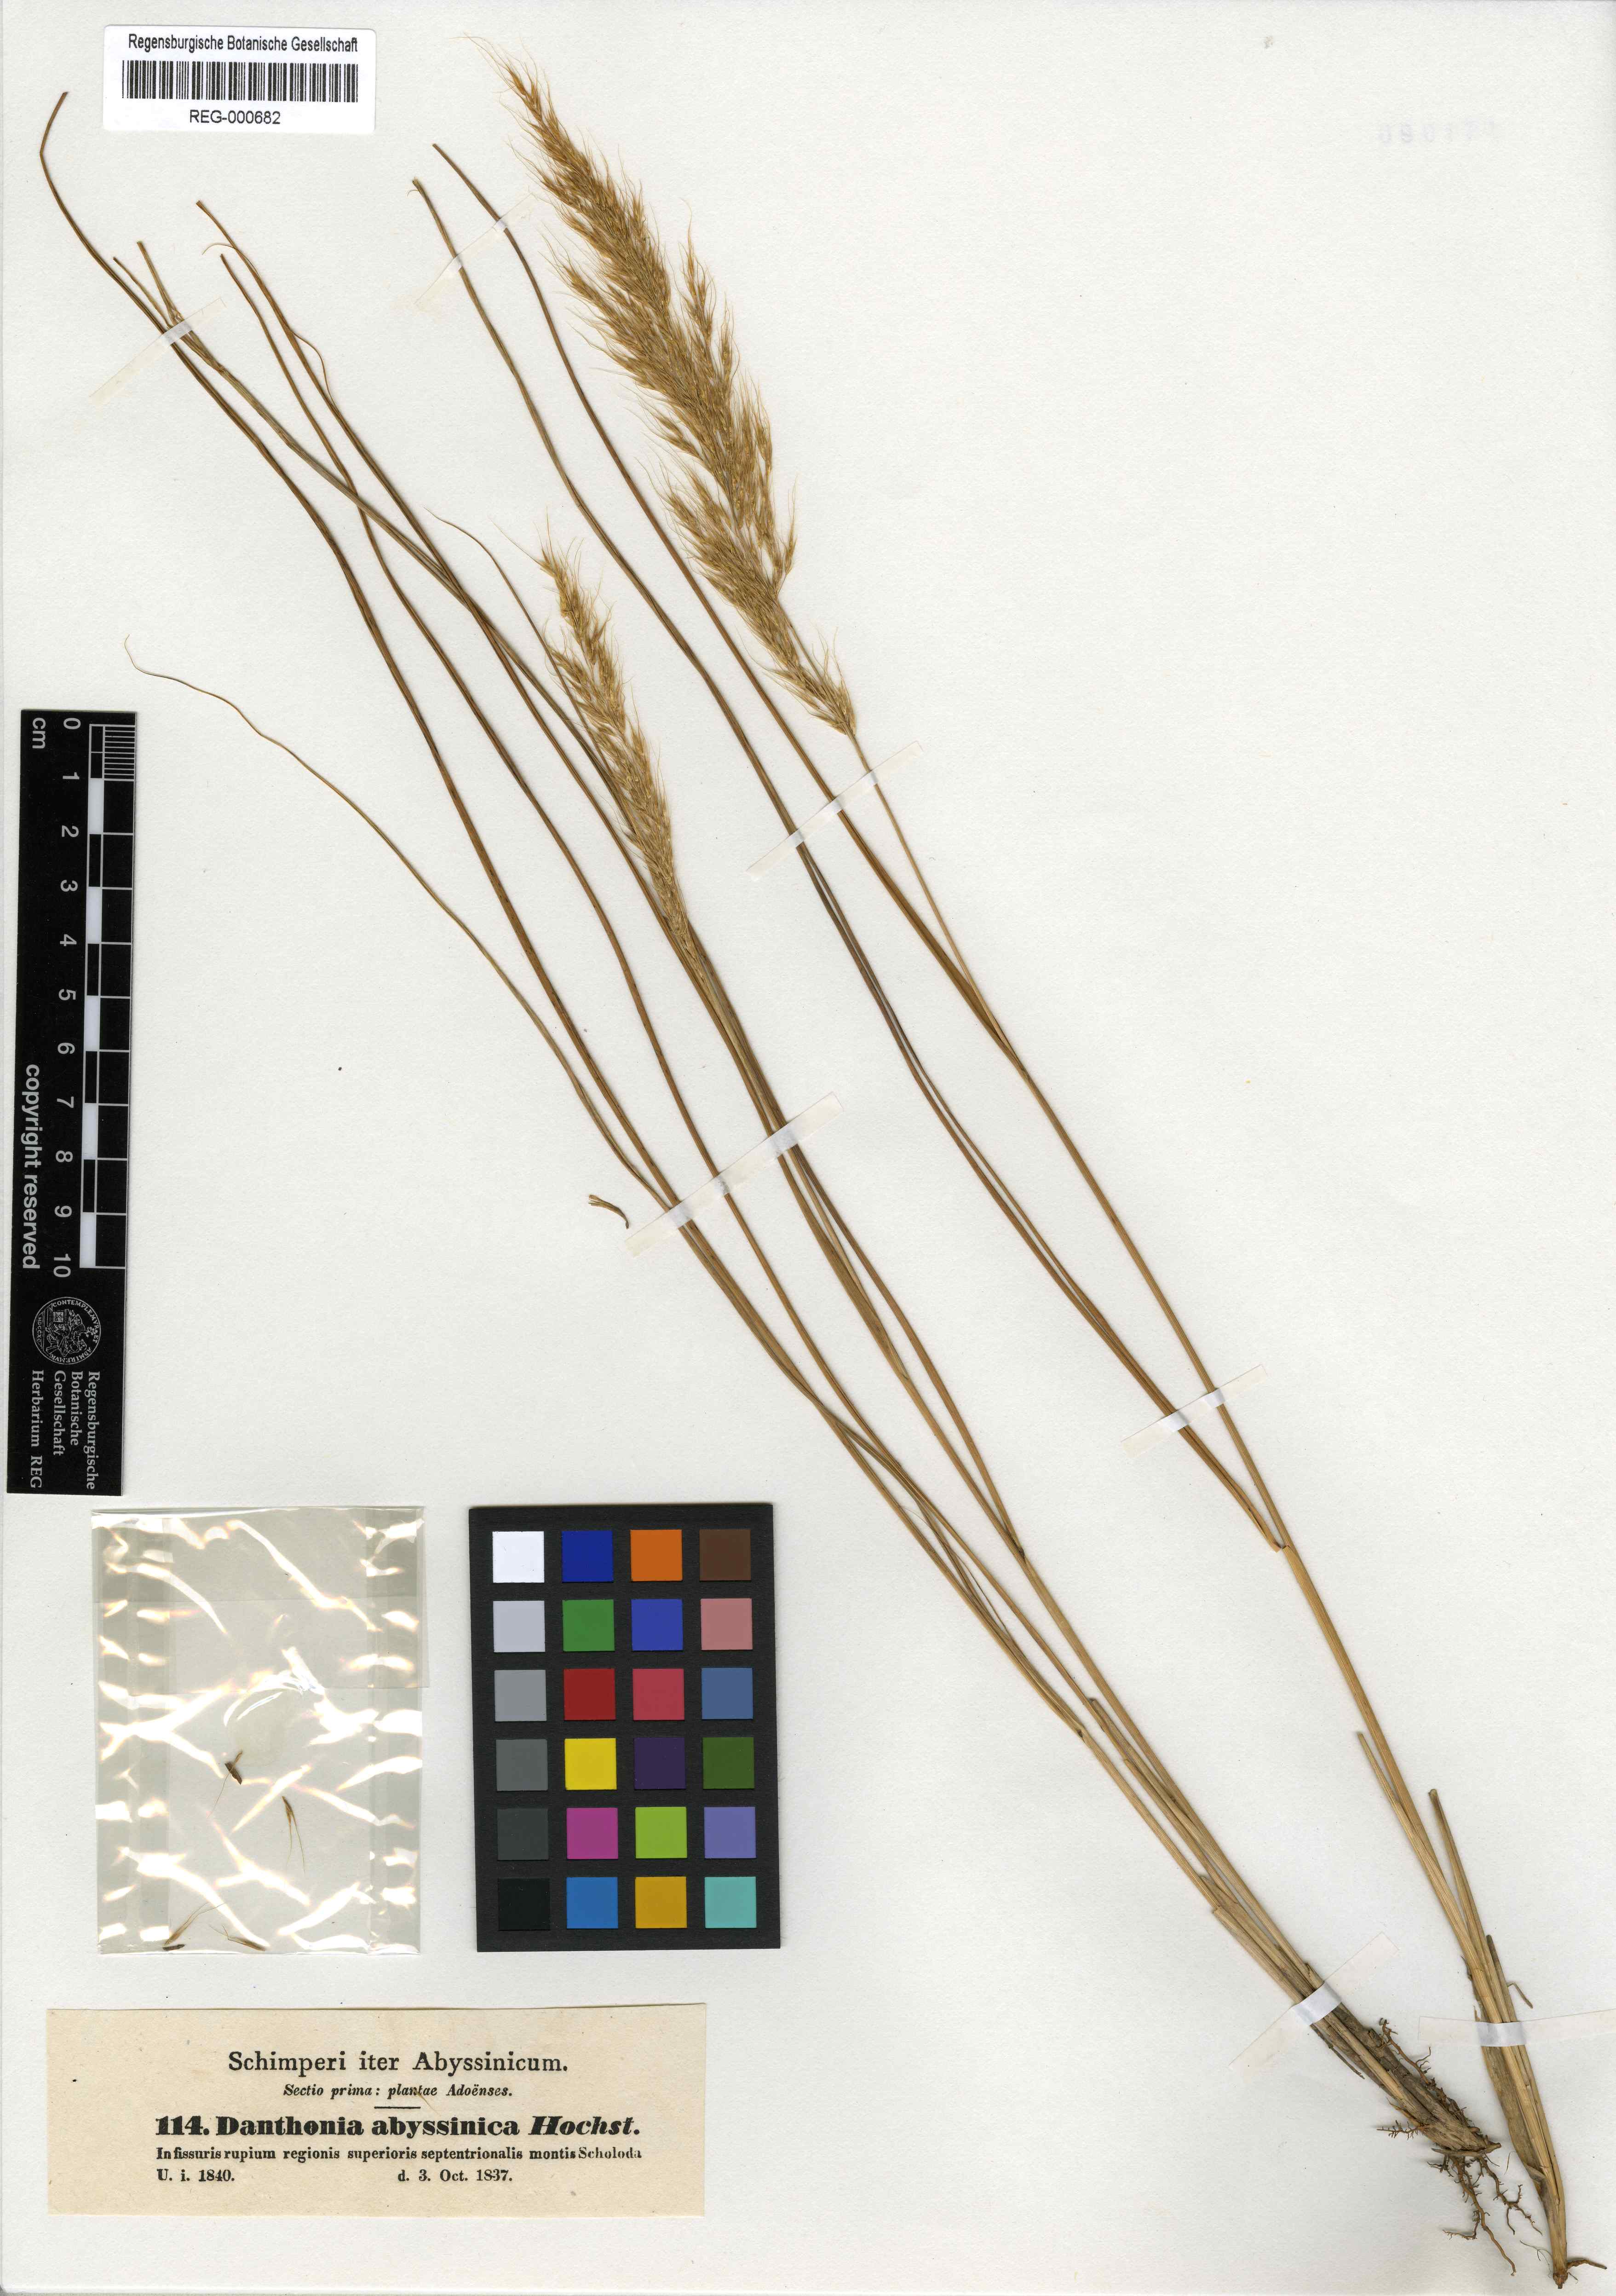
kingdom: Plantae
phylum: Tracheophyta
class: Liliopsida
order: Poales
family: Poaceae
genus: Crinipes
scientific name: Crinipes abyssinicus
